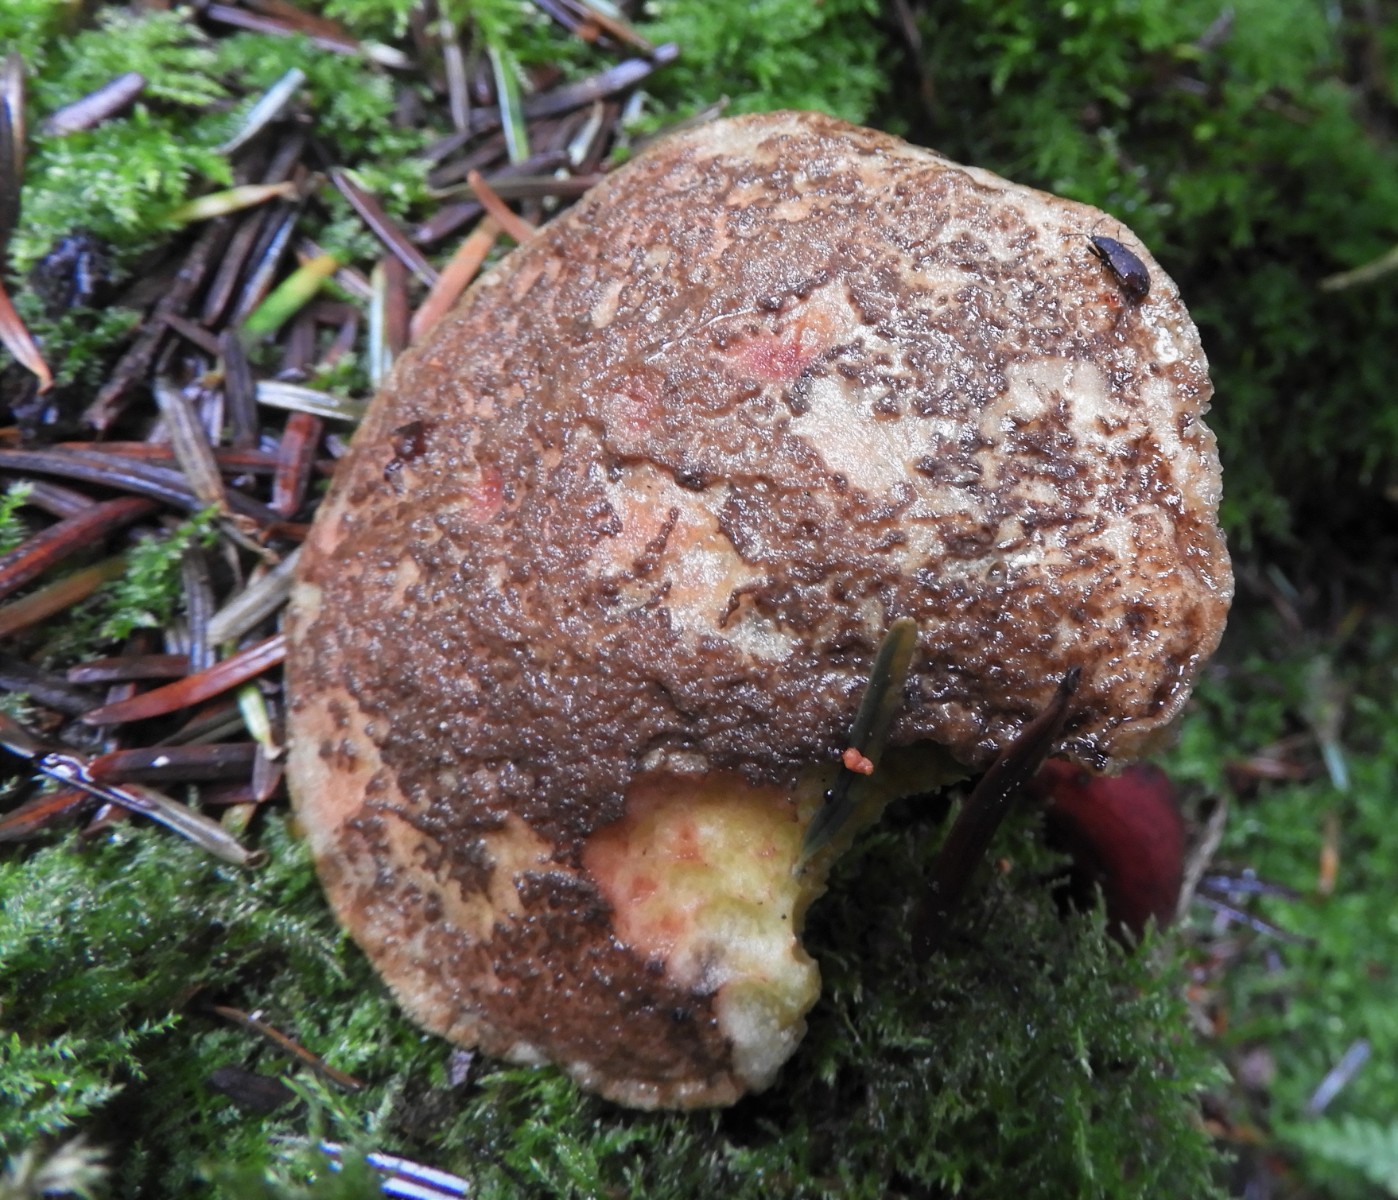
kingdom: Fungi
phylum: Basidiomycota
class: Agaricomycetes
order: Boletales
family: Boletaceae
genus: Xerocomellus
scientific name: Xerocomellus chrysenteron
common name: rødsprukken rørhat
